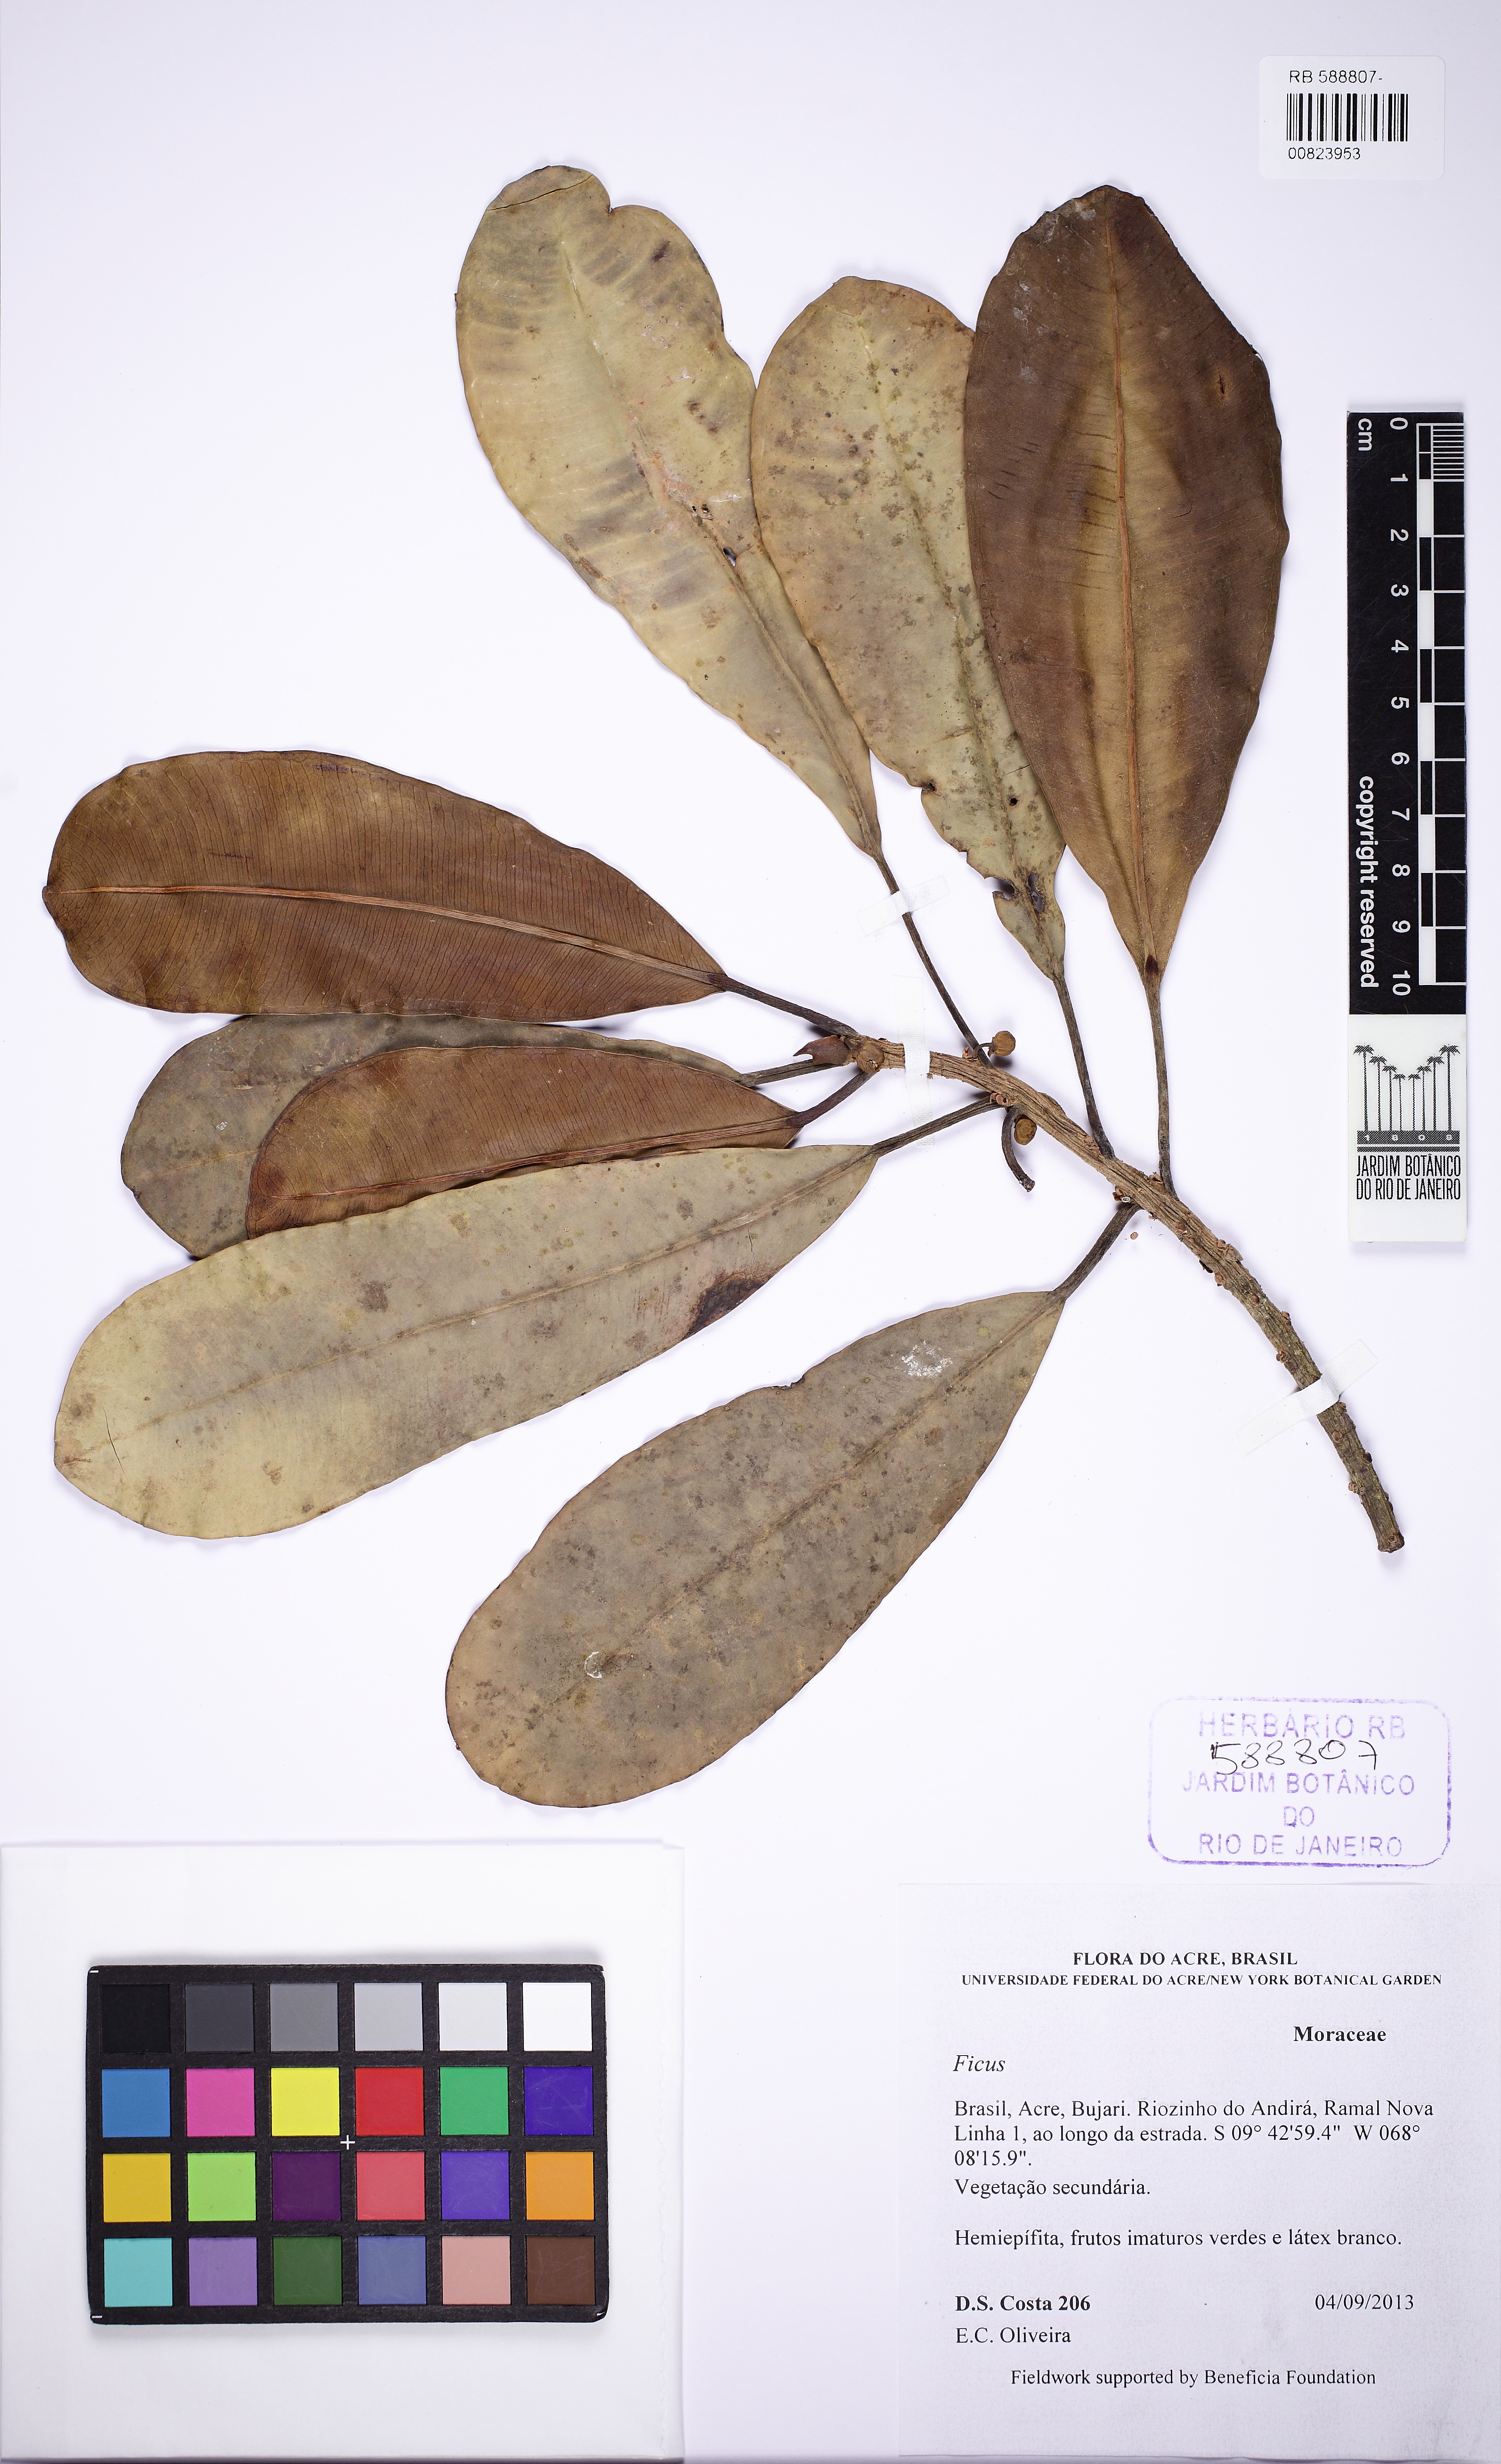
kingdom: Plantae
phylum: Tracheophyta
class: Magnoliopsida
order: Rosales
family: Moraceae
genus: Ficus
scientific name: Ficus sphenophylla
